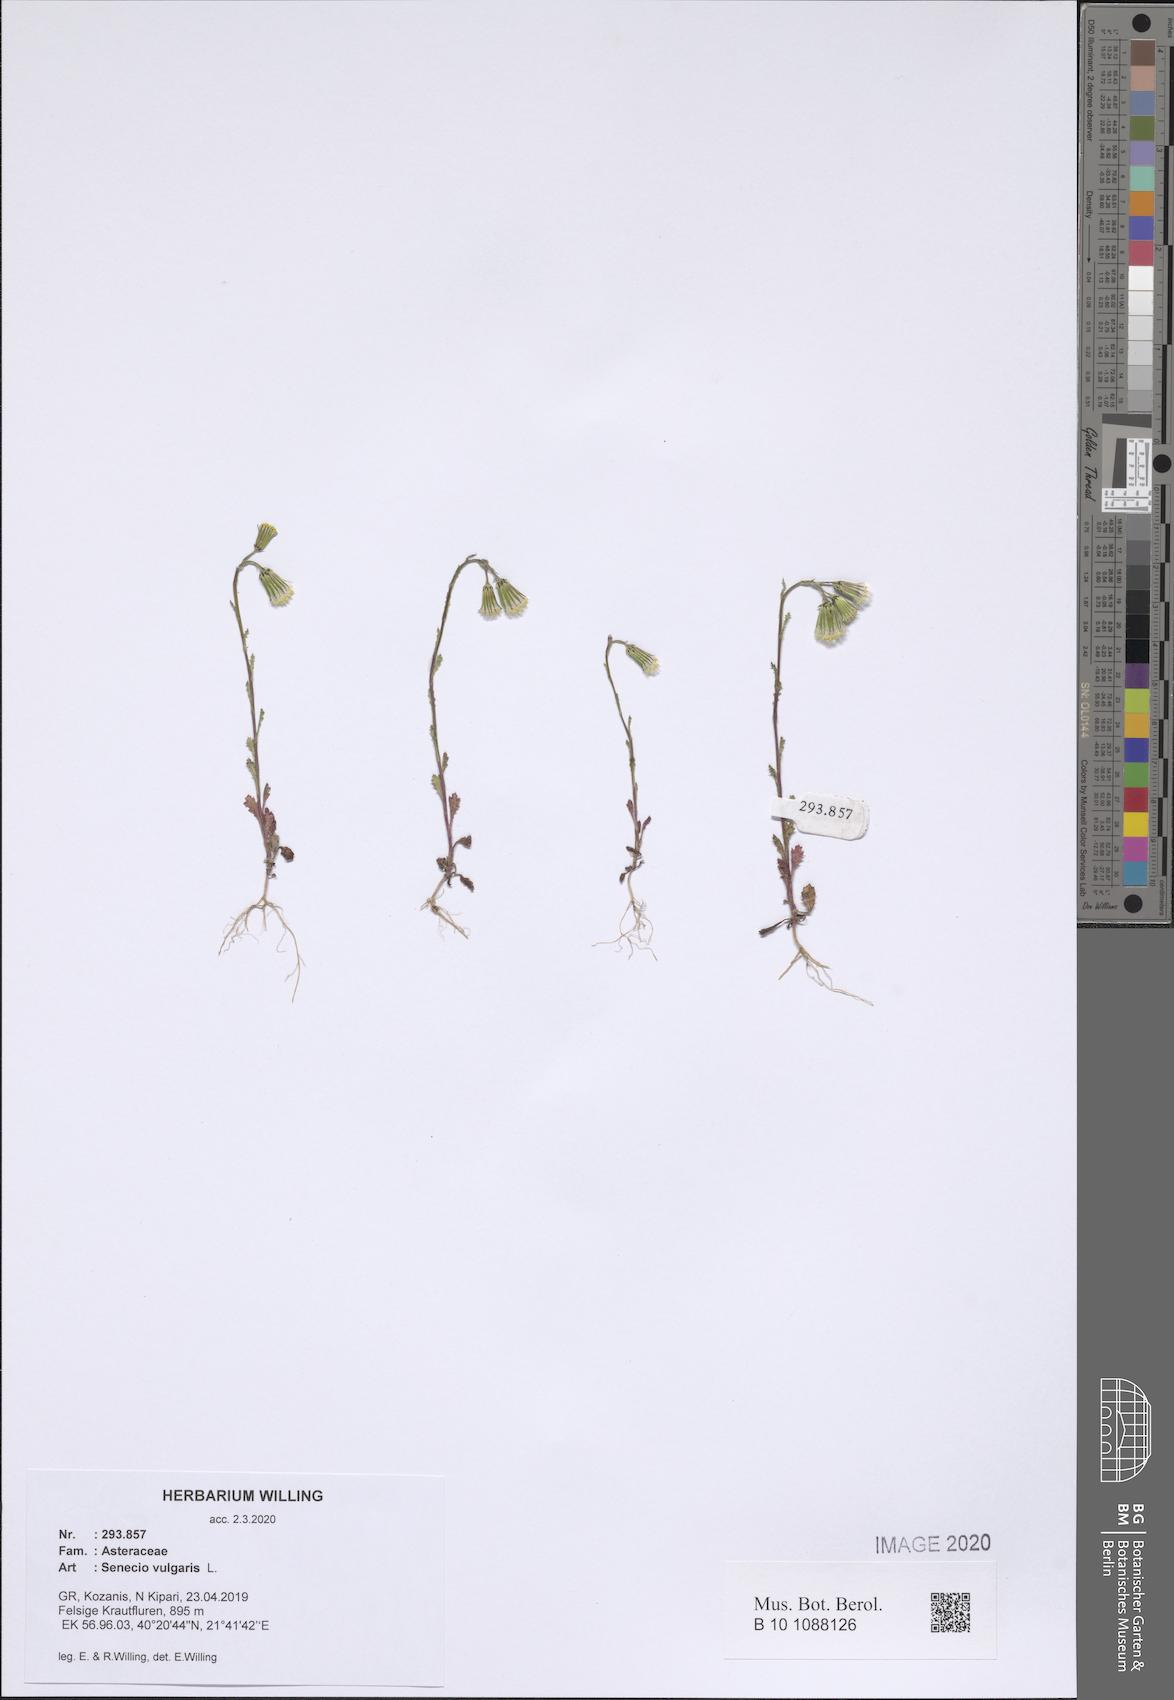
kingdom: Plantae
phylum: Tracheophyta
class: Magnoliopsida
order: Asterales
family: Asteraceae
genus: Senecio
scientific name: Senecio vulgaris
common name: Old-man-in-the-spring
